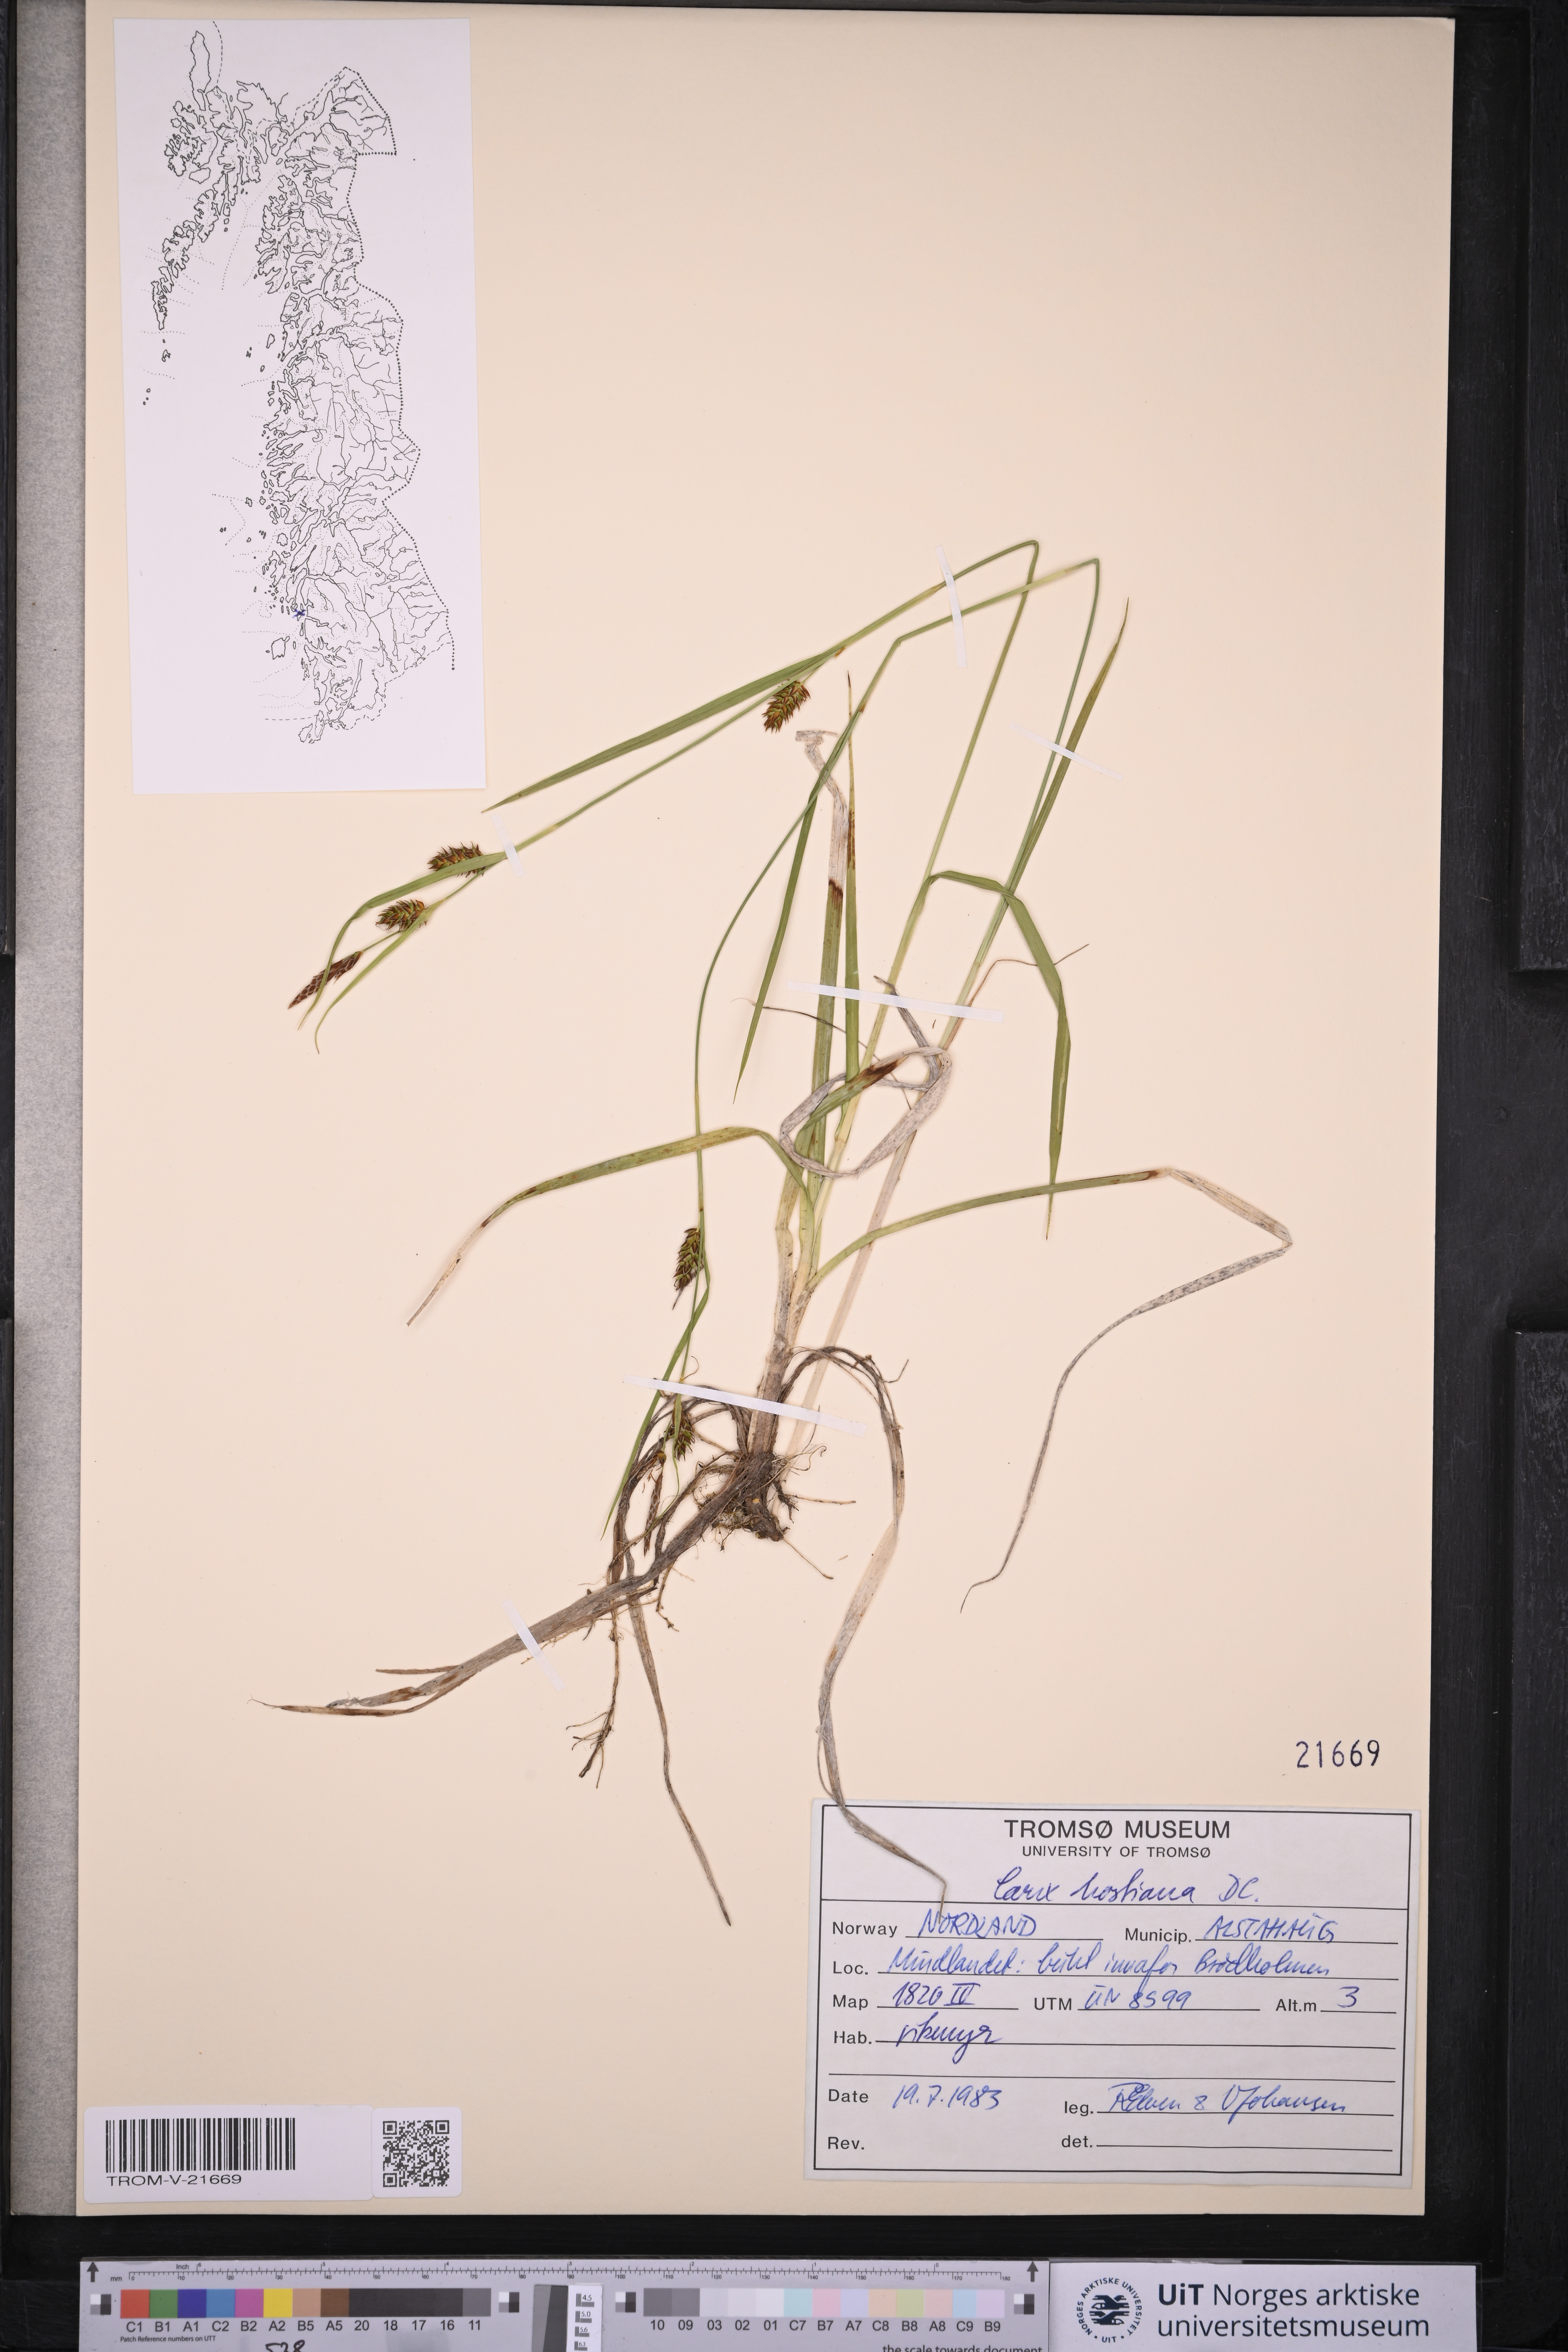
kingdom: Plantae
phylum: Tracheophyta
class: Liliopsida
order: Poales
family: Cyperaceae
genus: Carex
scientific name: Carex hostiana
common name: Tawny sedge
